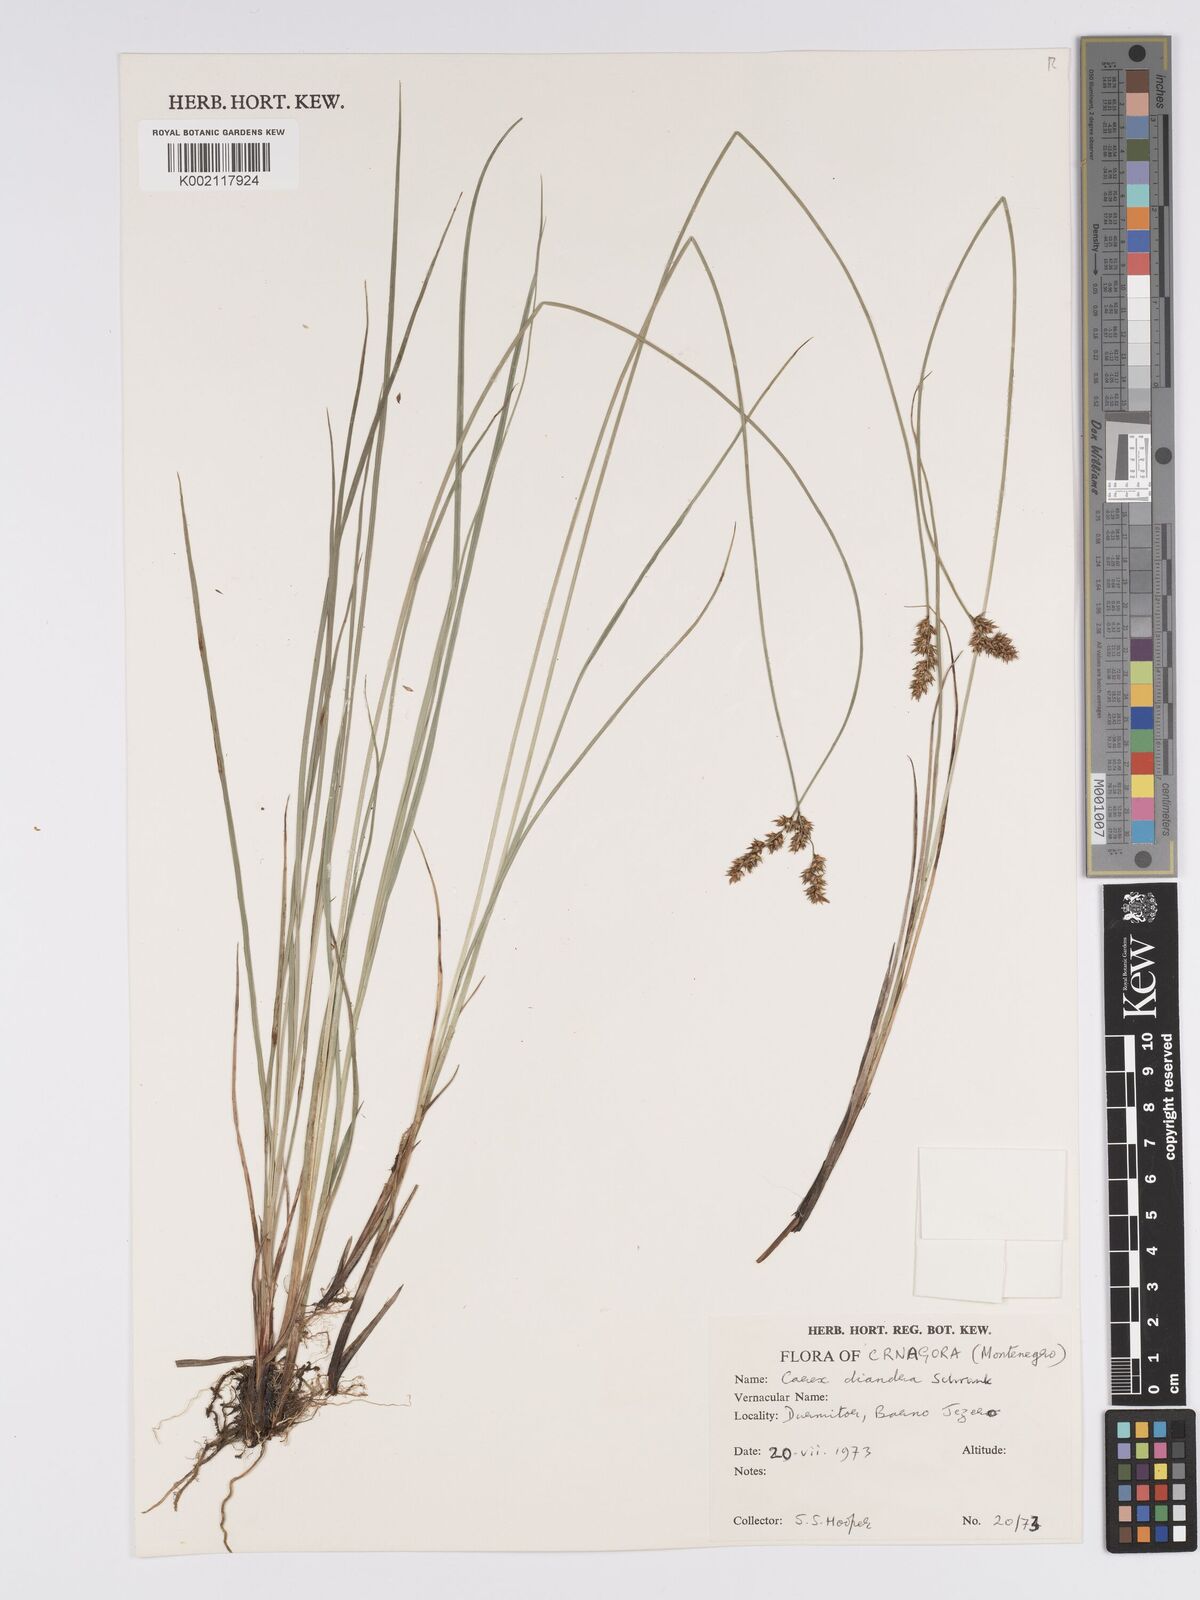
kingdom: Plantae
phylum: Tracheophyta
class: Liliopsida
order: Poales
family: Cyperaceae
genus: Carex
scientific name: Carex diandra
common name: Lesser tussock-sedge
